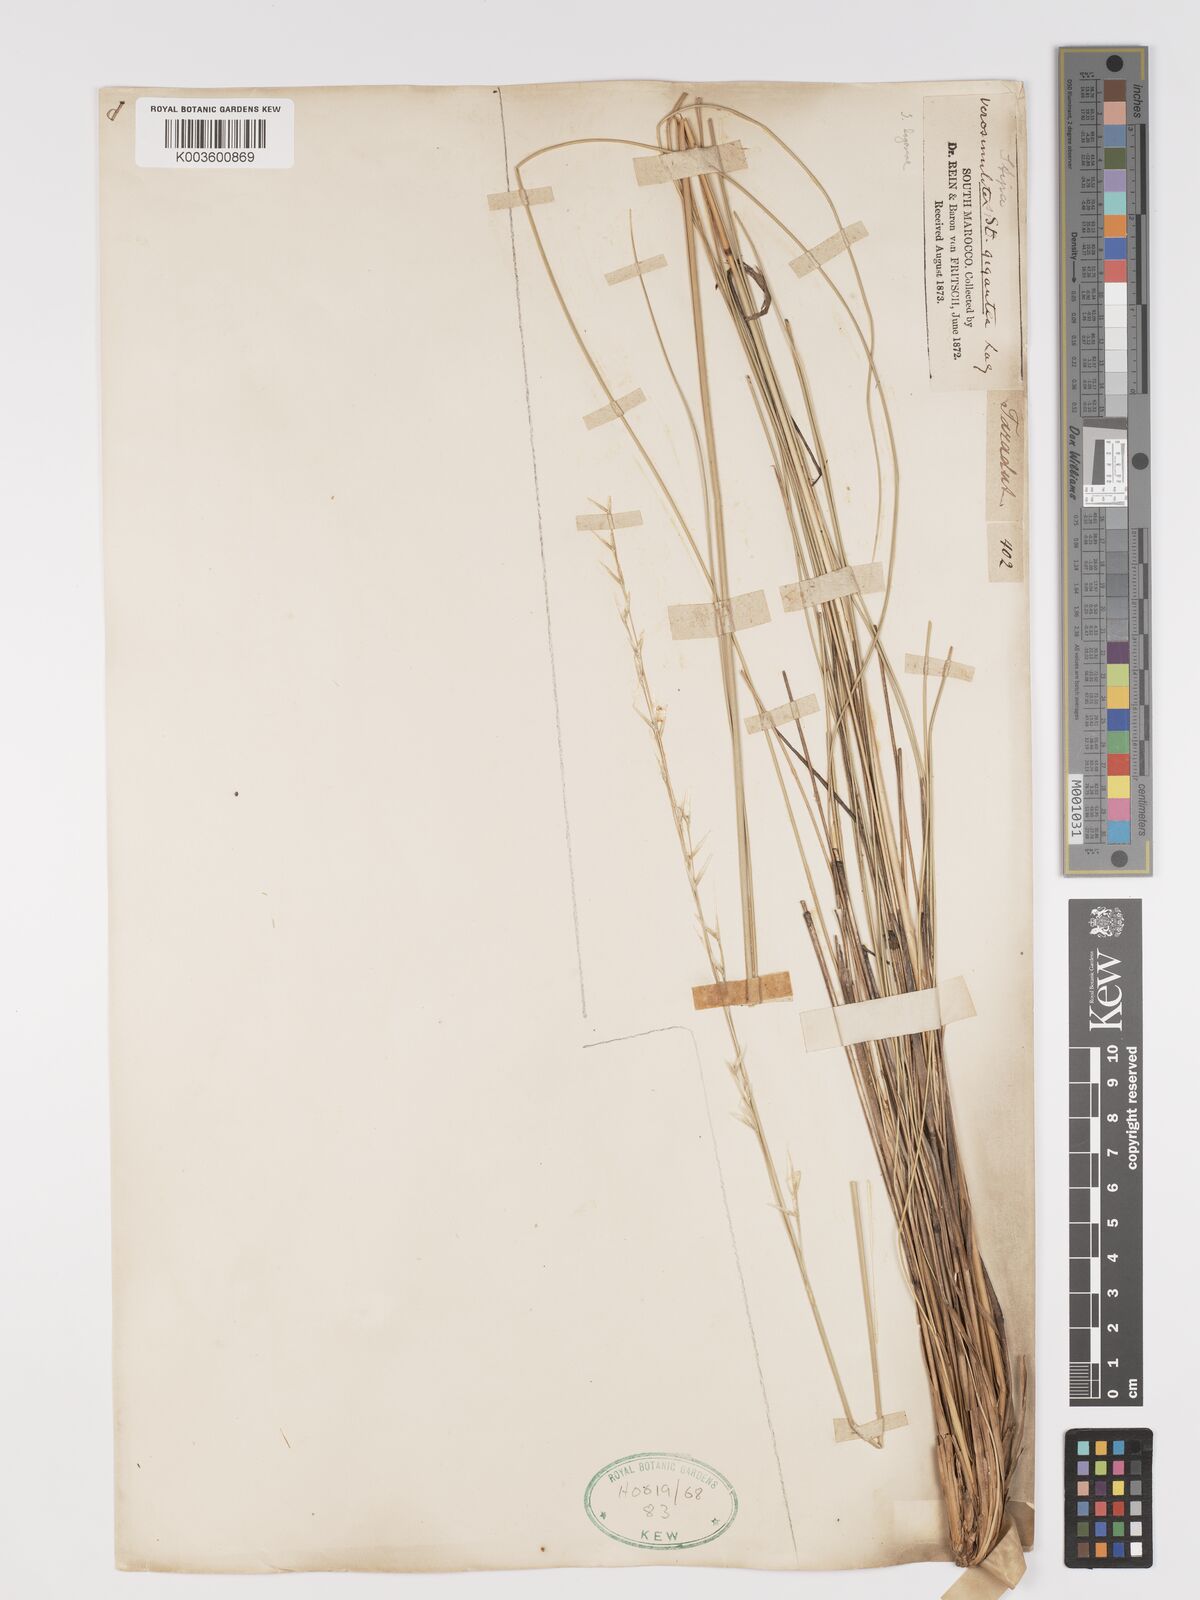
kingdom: Plantae
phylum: Tracheophyta
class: Liliopsida
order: Poales
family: Poaceae
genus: Stipa
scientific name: Stipa lagascae
